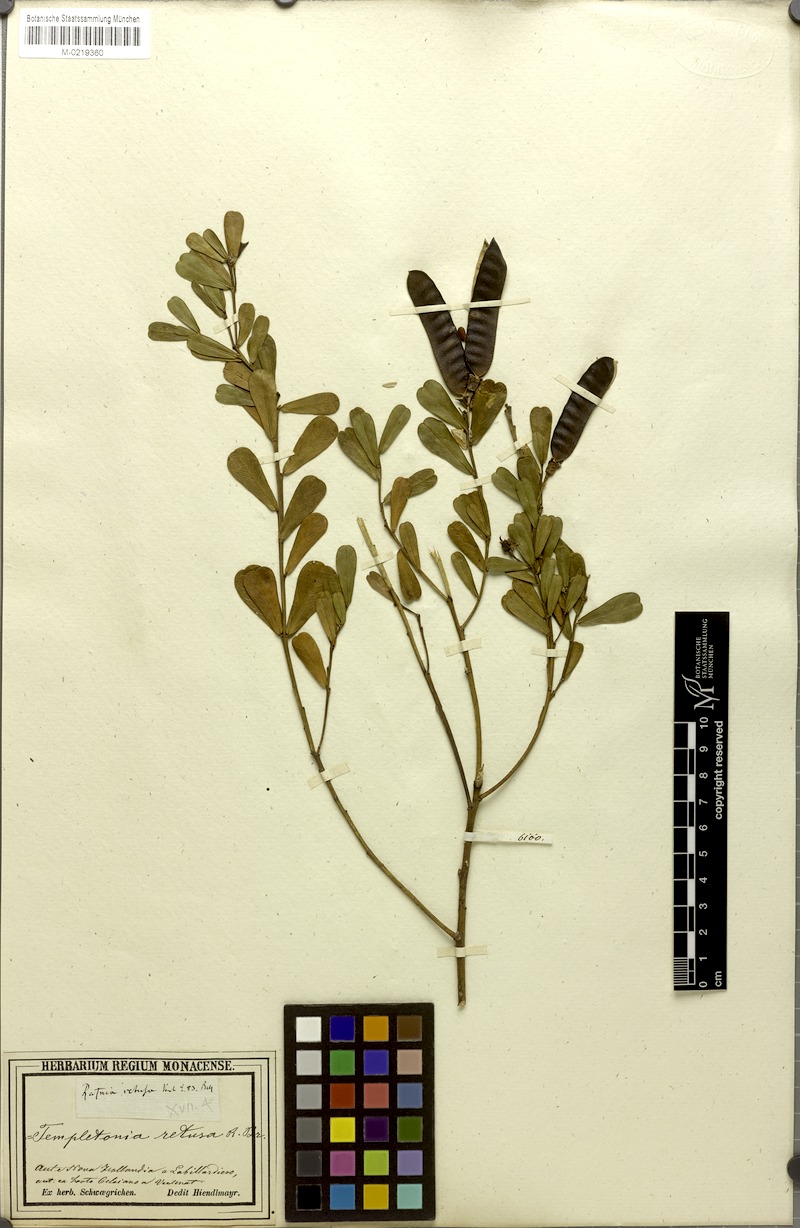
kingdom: Plantae
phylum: Tracheophyta
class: Magnoliopsida
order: Fabales
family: Fabaceae
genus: Templetonia
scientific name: Templetonia retusa
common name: Cockies'-tongue
